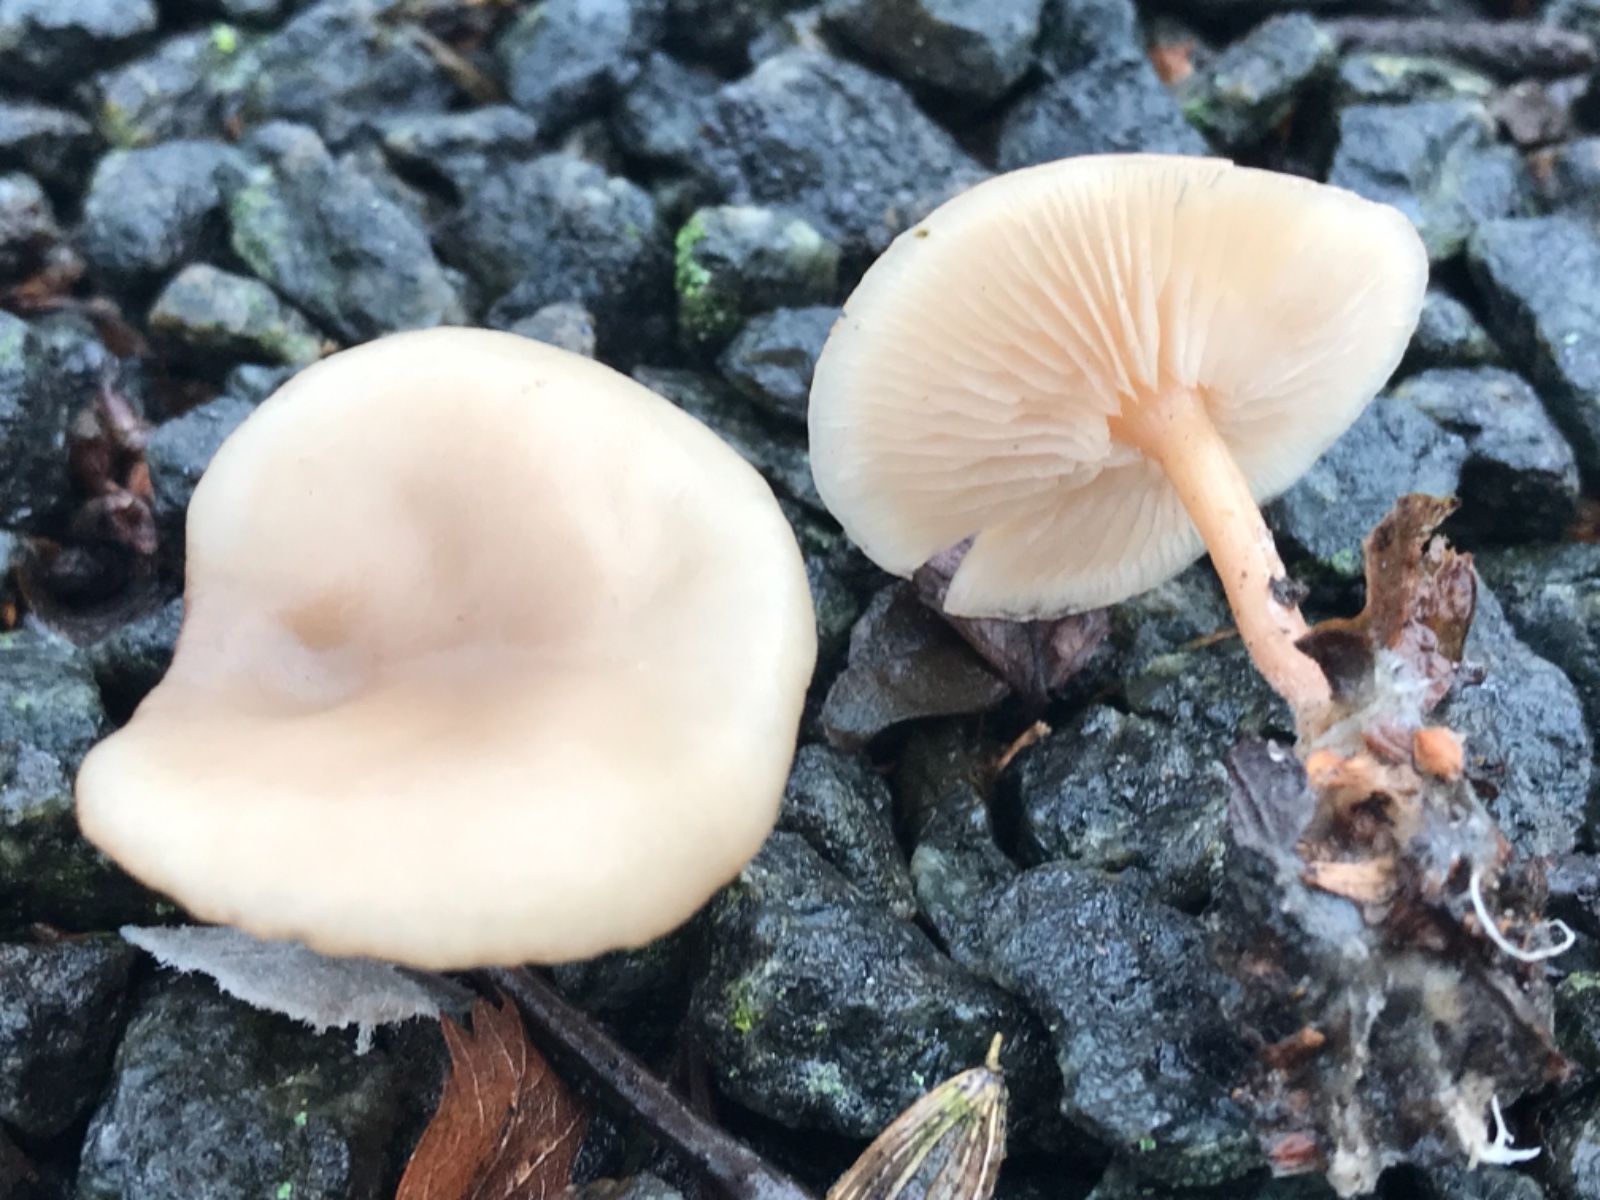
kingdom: Fungi
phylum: Basidiomycota
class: Agaricomycetes
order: Agaricales
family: Omphalotaceae
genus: Gymnopus
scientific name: Gymnopus dryophilus
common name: løv-fladhat
